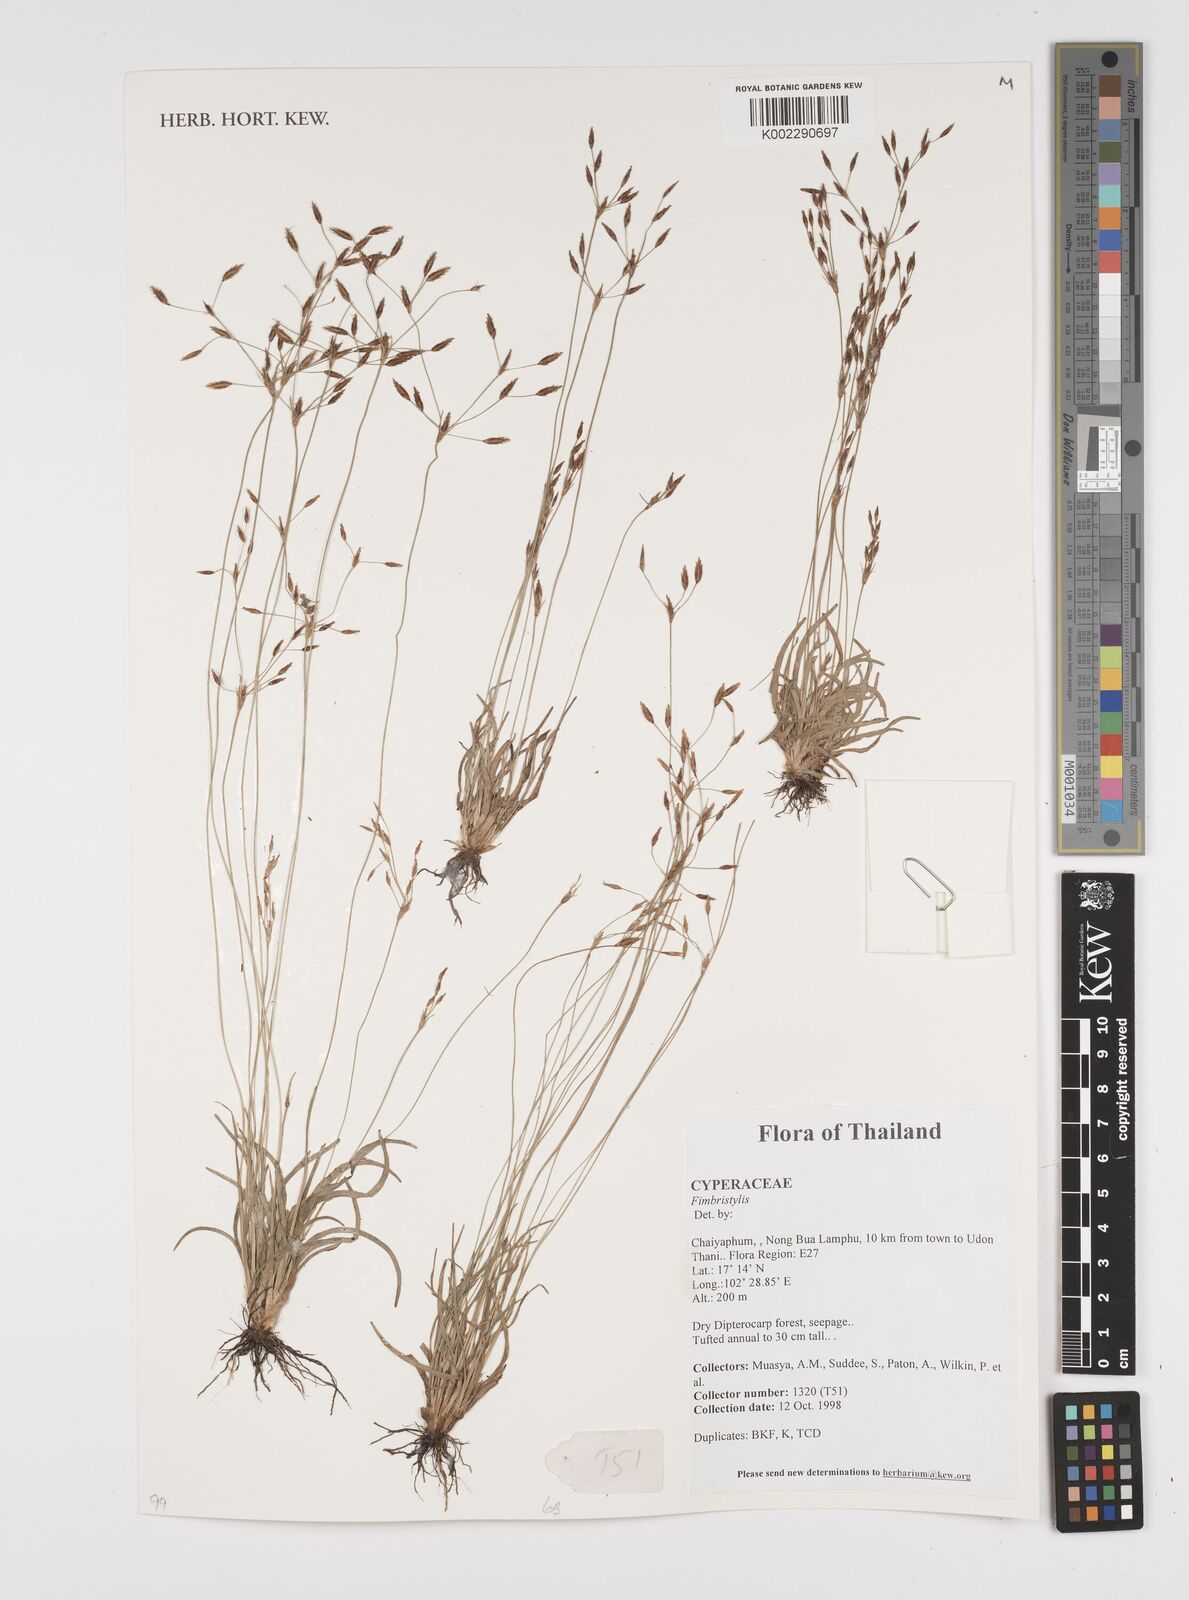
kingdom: Plantae
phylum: Tracheophyta
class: Liliopsida
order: Poales
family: Cyperaceae
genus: Fimbristylis
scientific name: Fimbristylis
